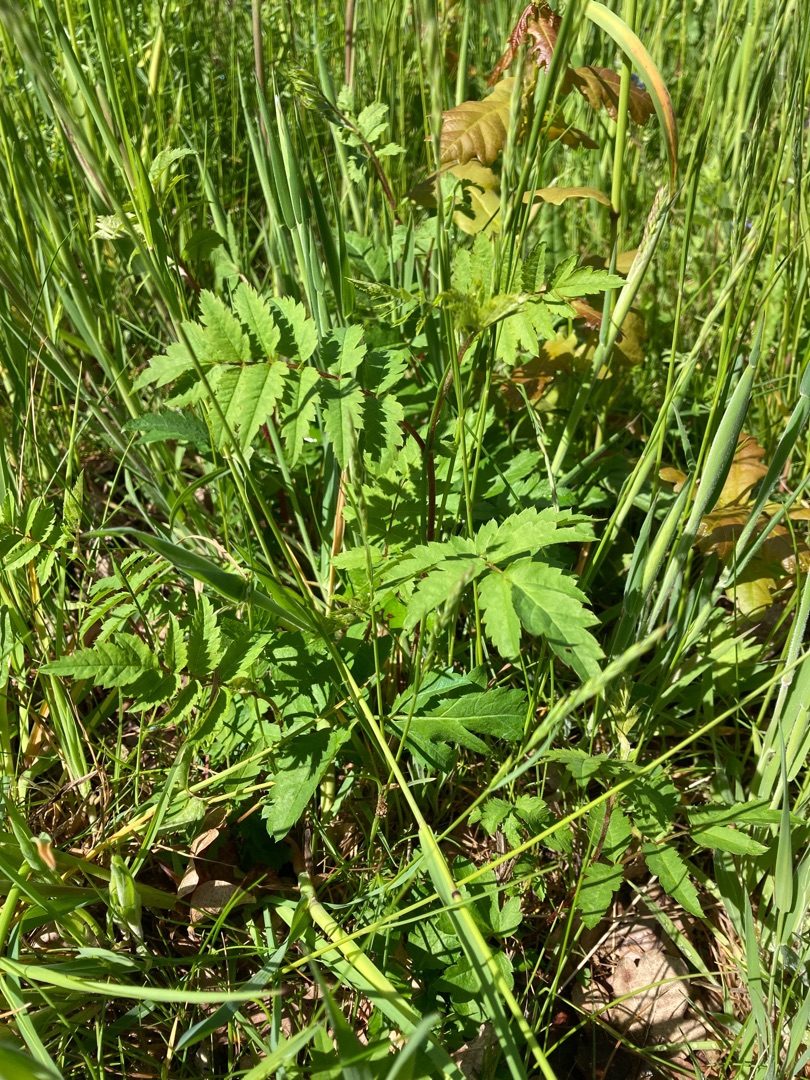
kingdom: Plantae
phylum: Tracheophyta
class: Magnoliopsida
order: Rosales
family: Rosaceae
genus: Sorbus
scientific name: Sorbus aucuparia
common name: Almindelig røn
